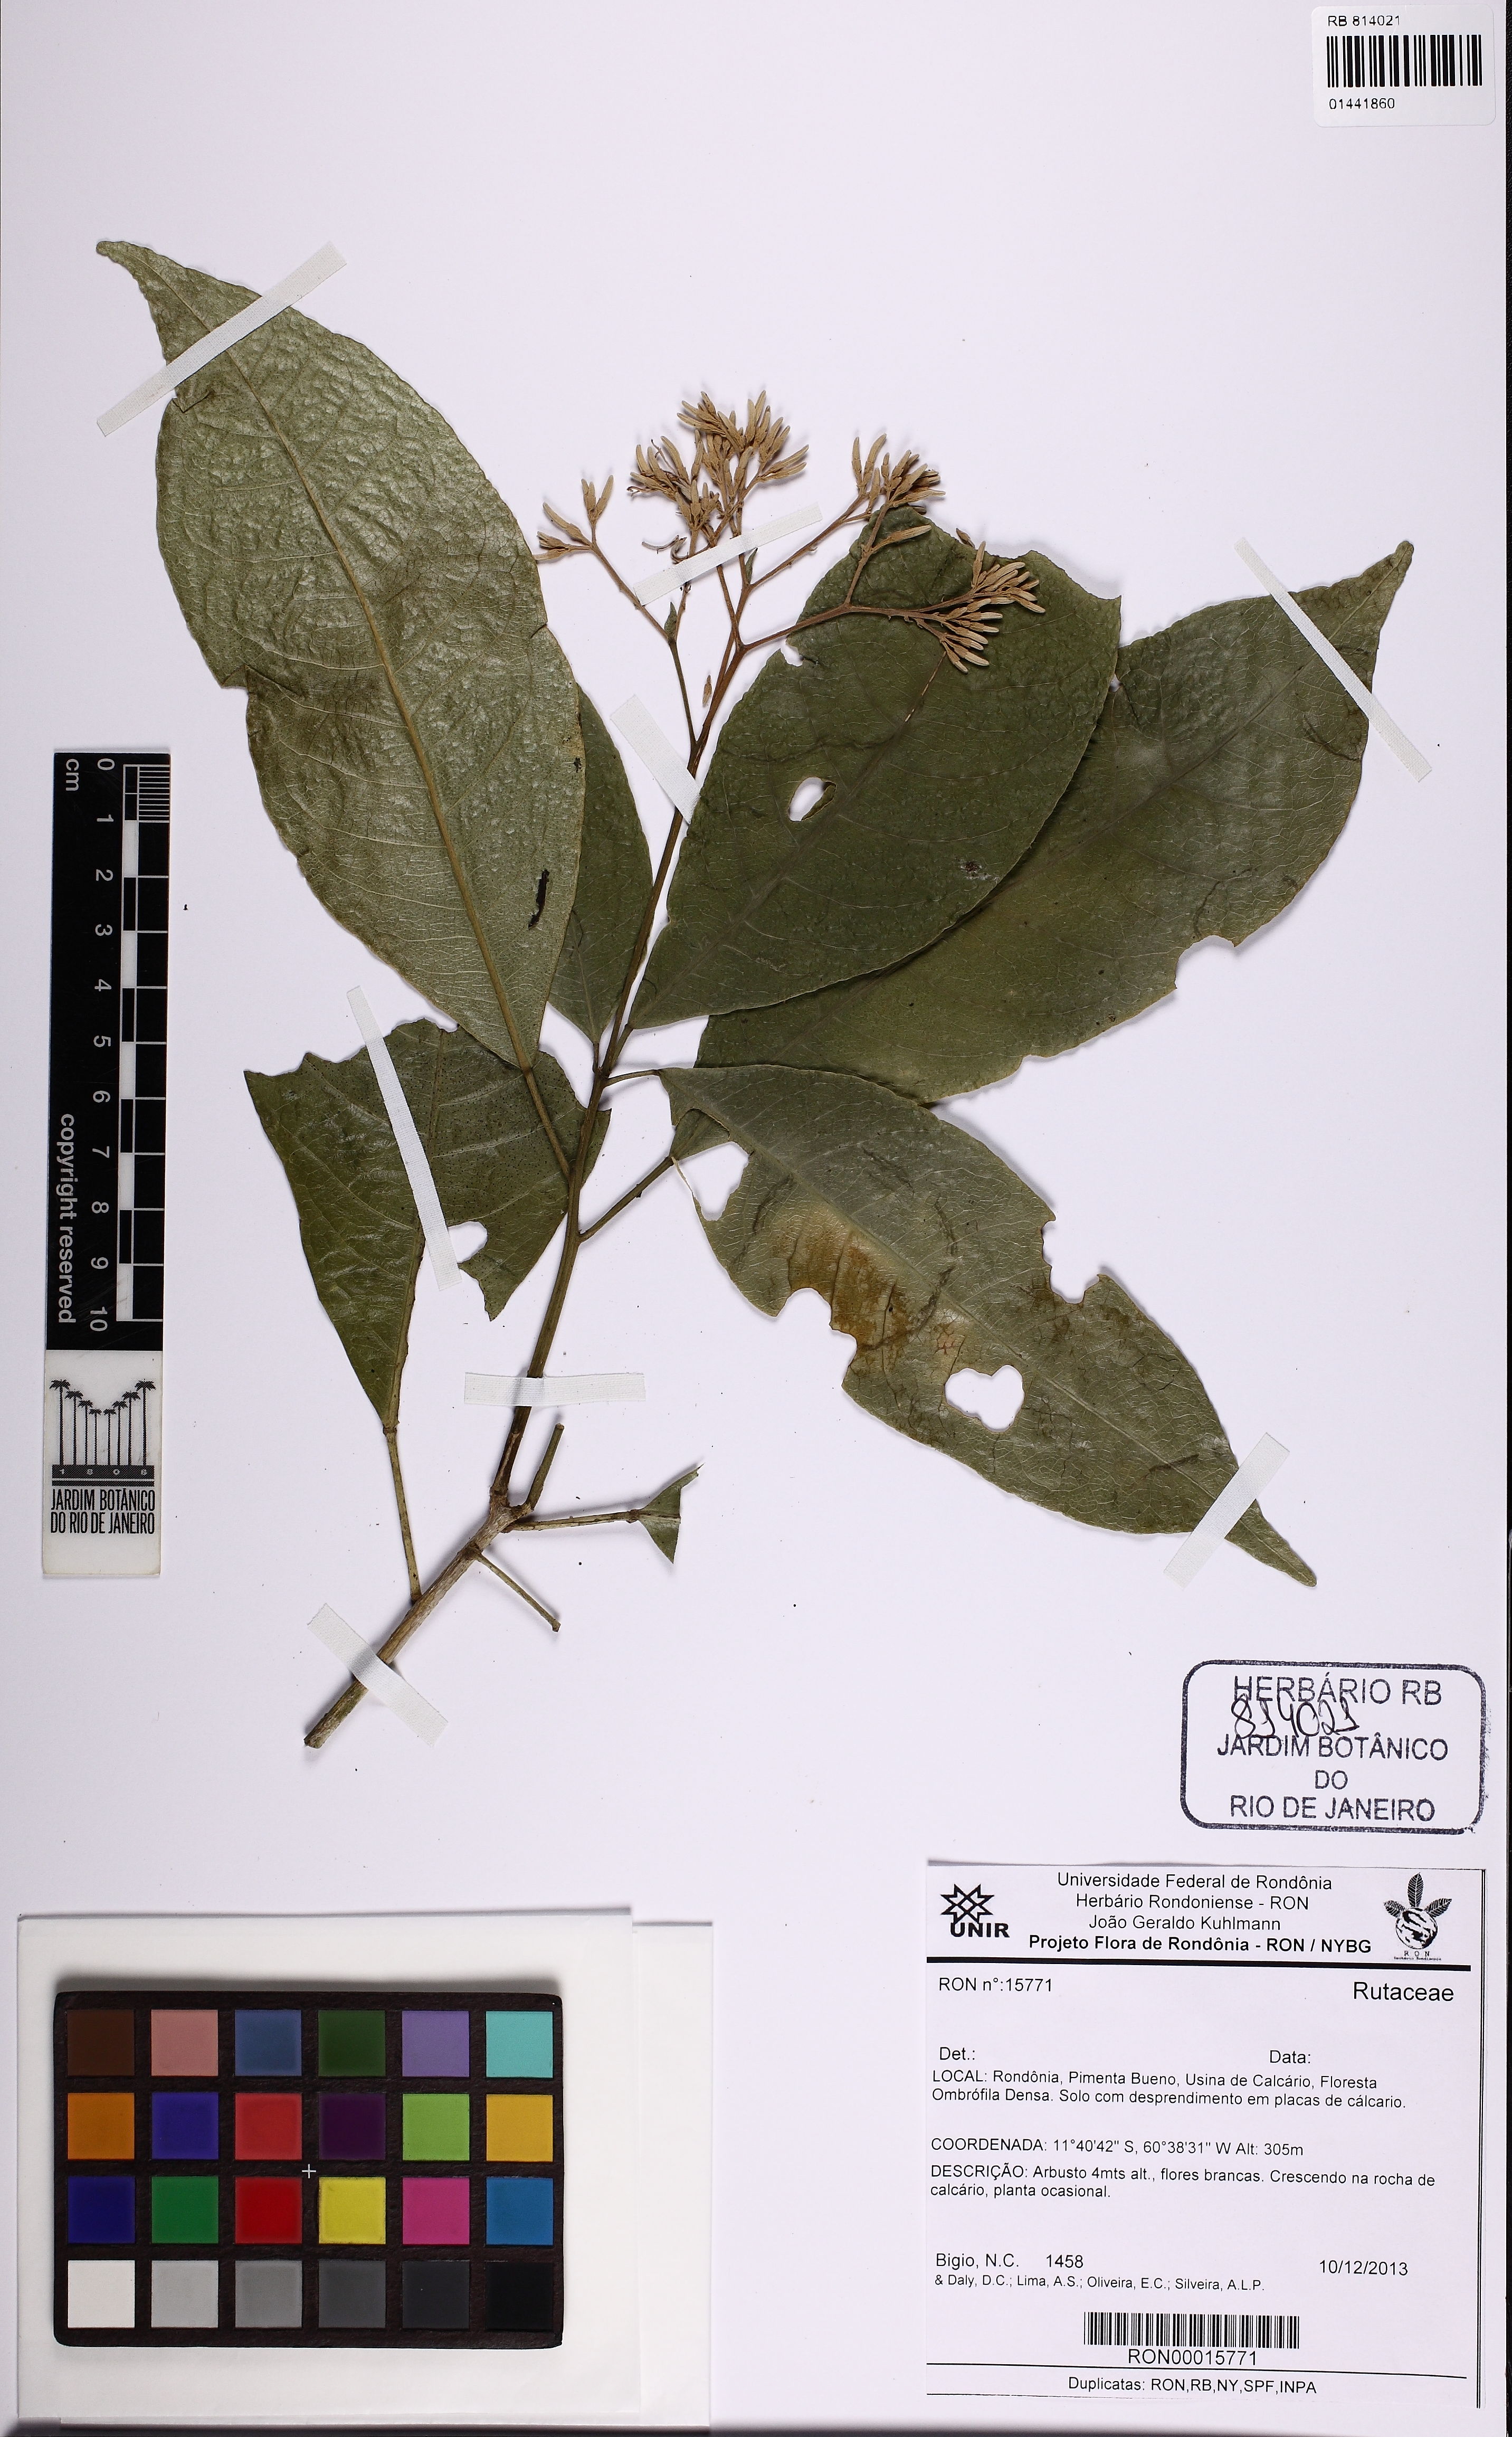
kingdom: Plantae
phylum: Tracheophyta
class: Magnoliopsida
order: Sapindales
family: Rutaceae
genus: Rauia
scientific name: Rauia
